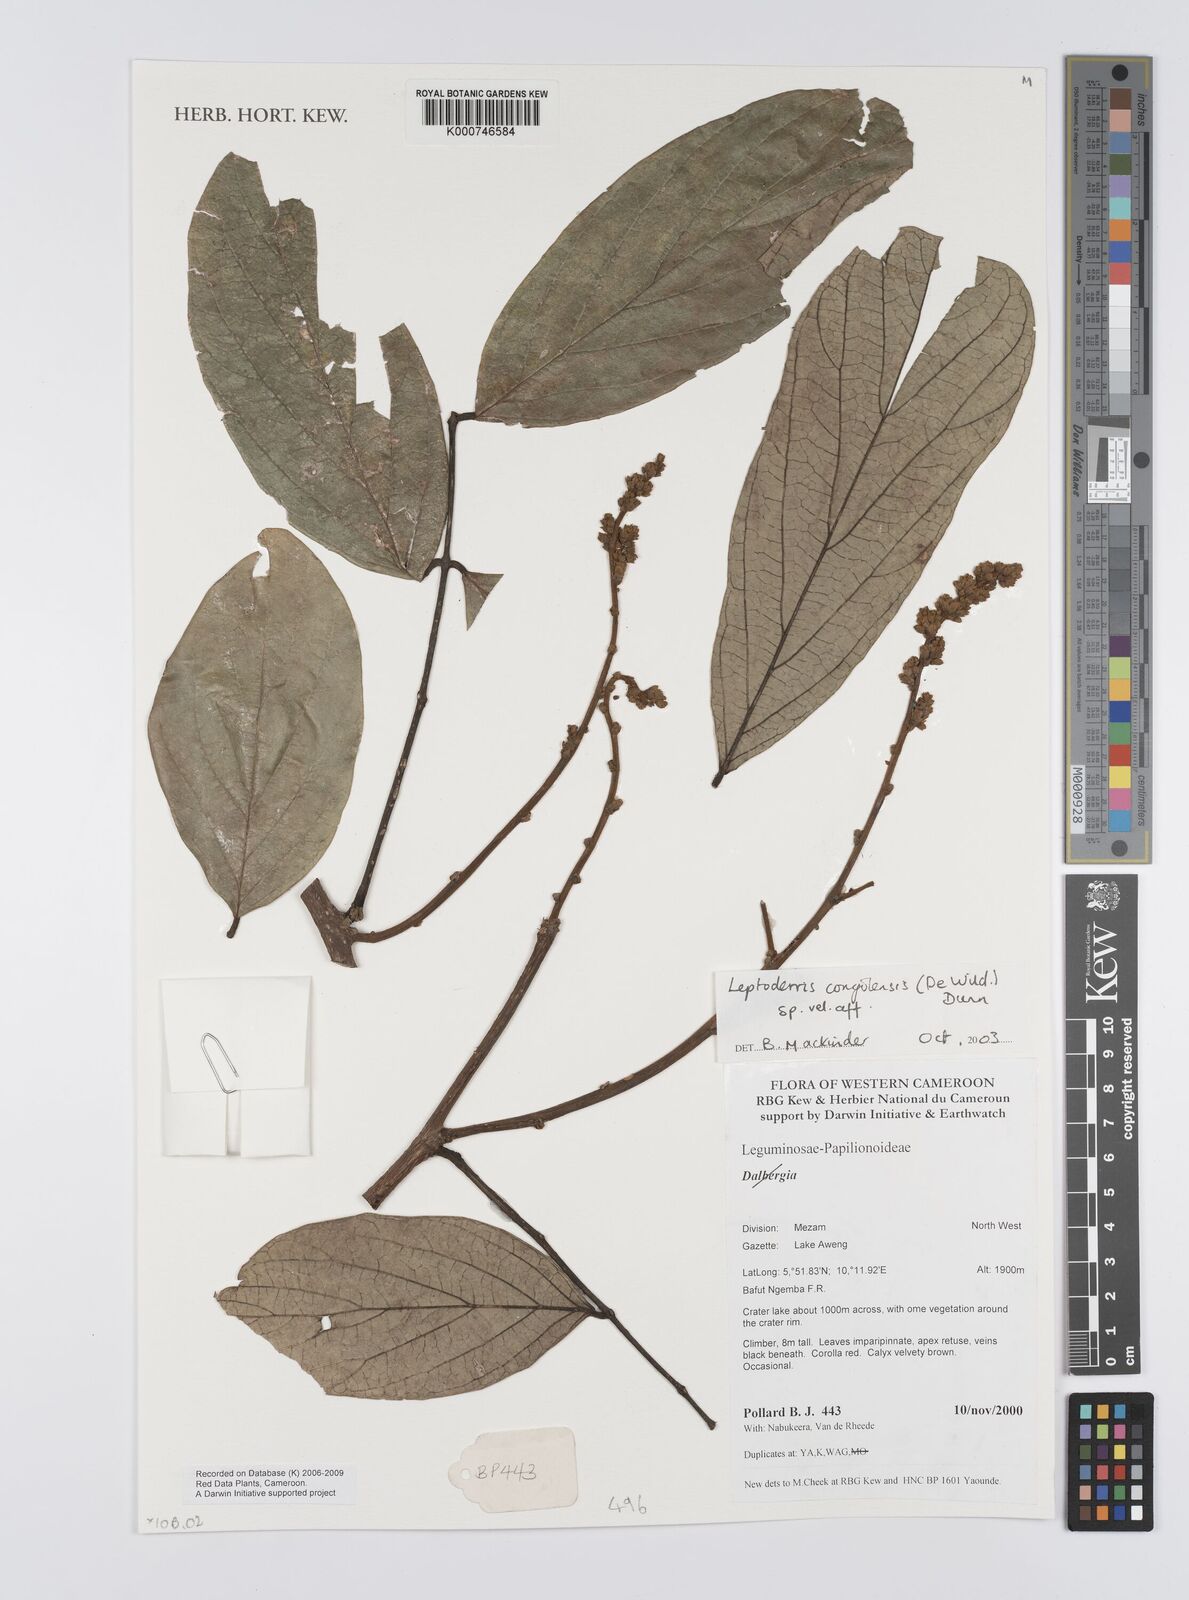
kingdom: Plantae
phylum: Tracheophyta
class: Magnoliopsida
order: Fabales
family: Fabaceae
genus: Leptoderris
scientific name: Leptoderris congolensis
